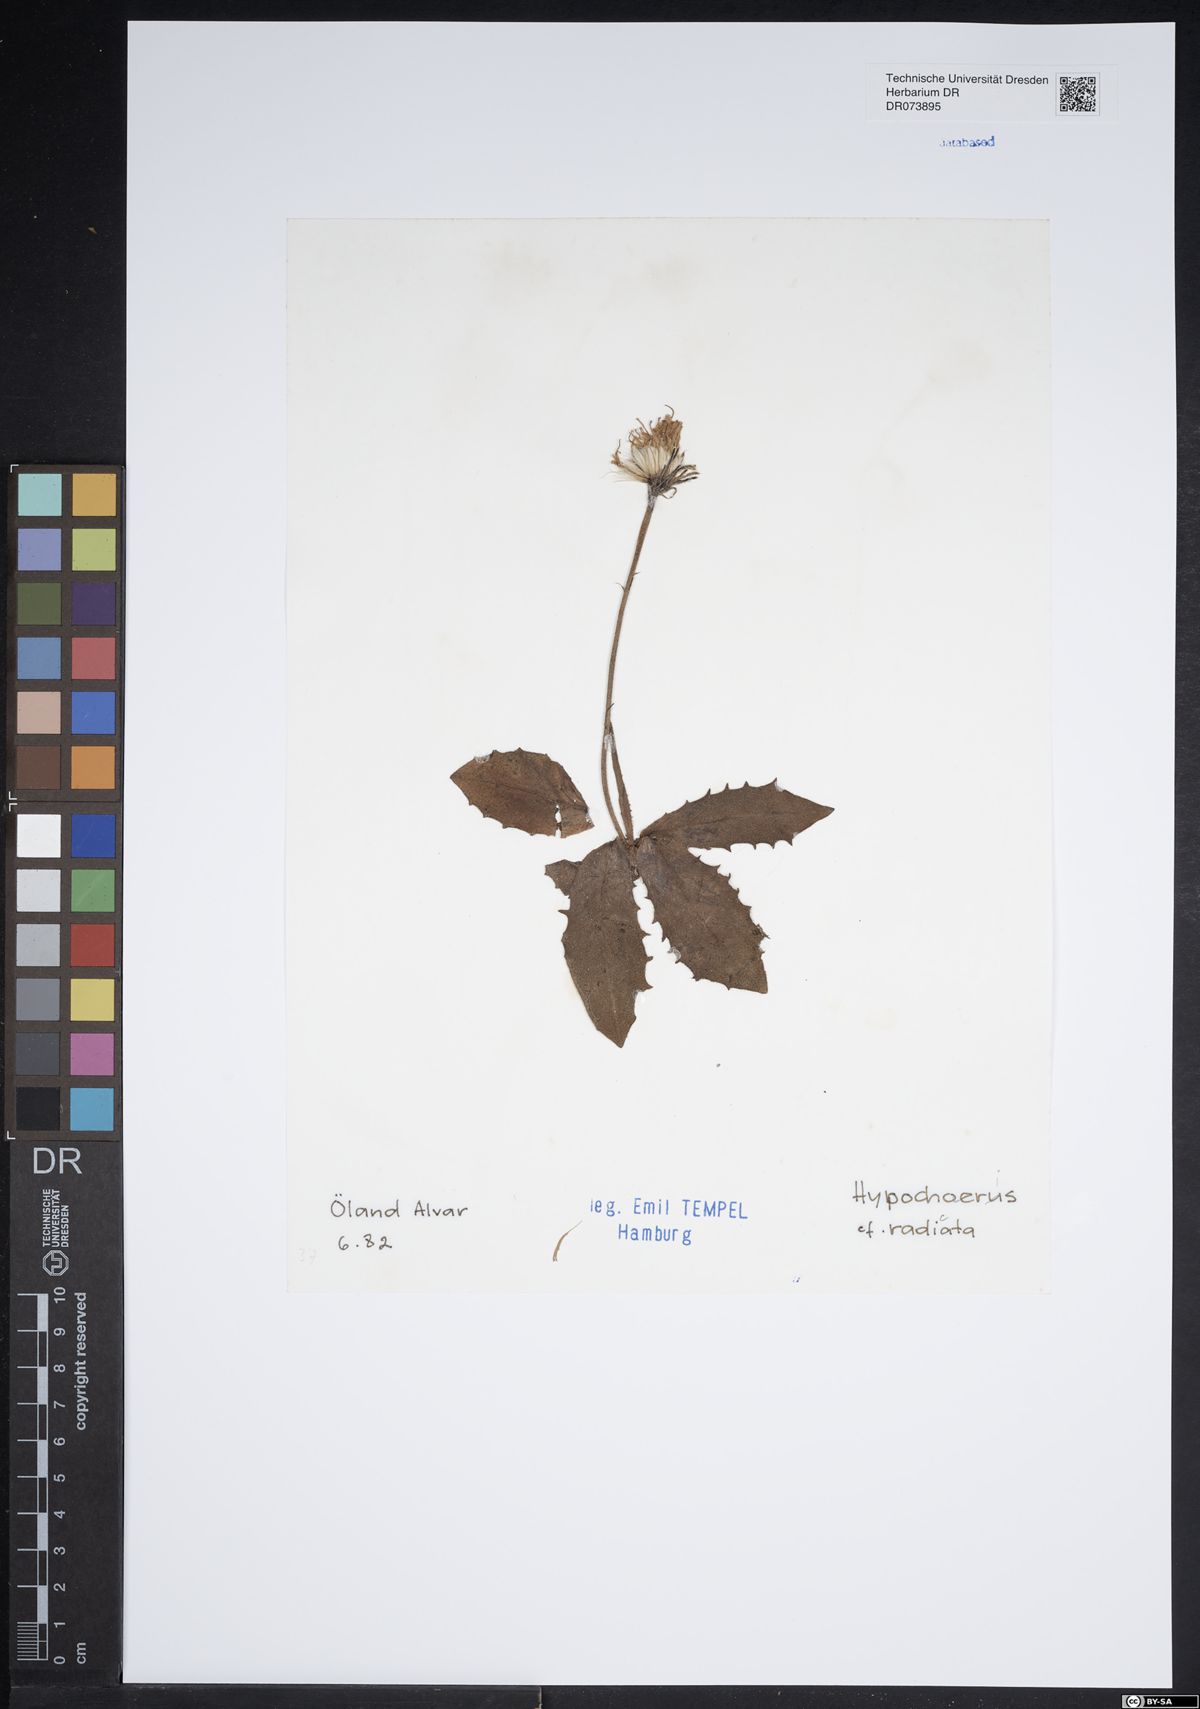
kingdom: Plantae
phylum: Tracheophyta
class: Magnoliopsida
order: Asterales
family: Asteraceae
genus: Hypochaeris
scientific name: Hypochaeris radicata
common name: Flatweed
